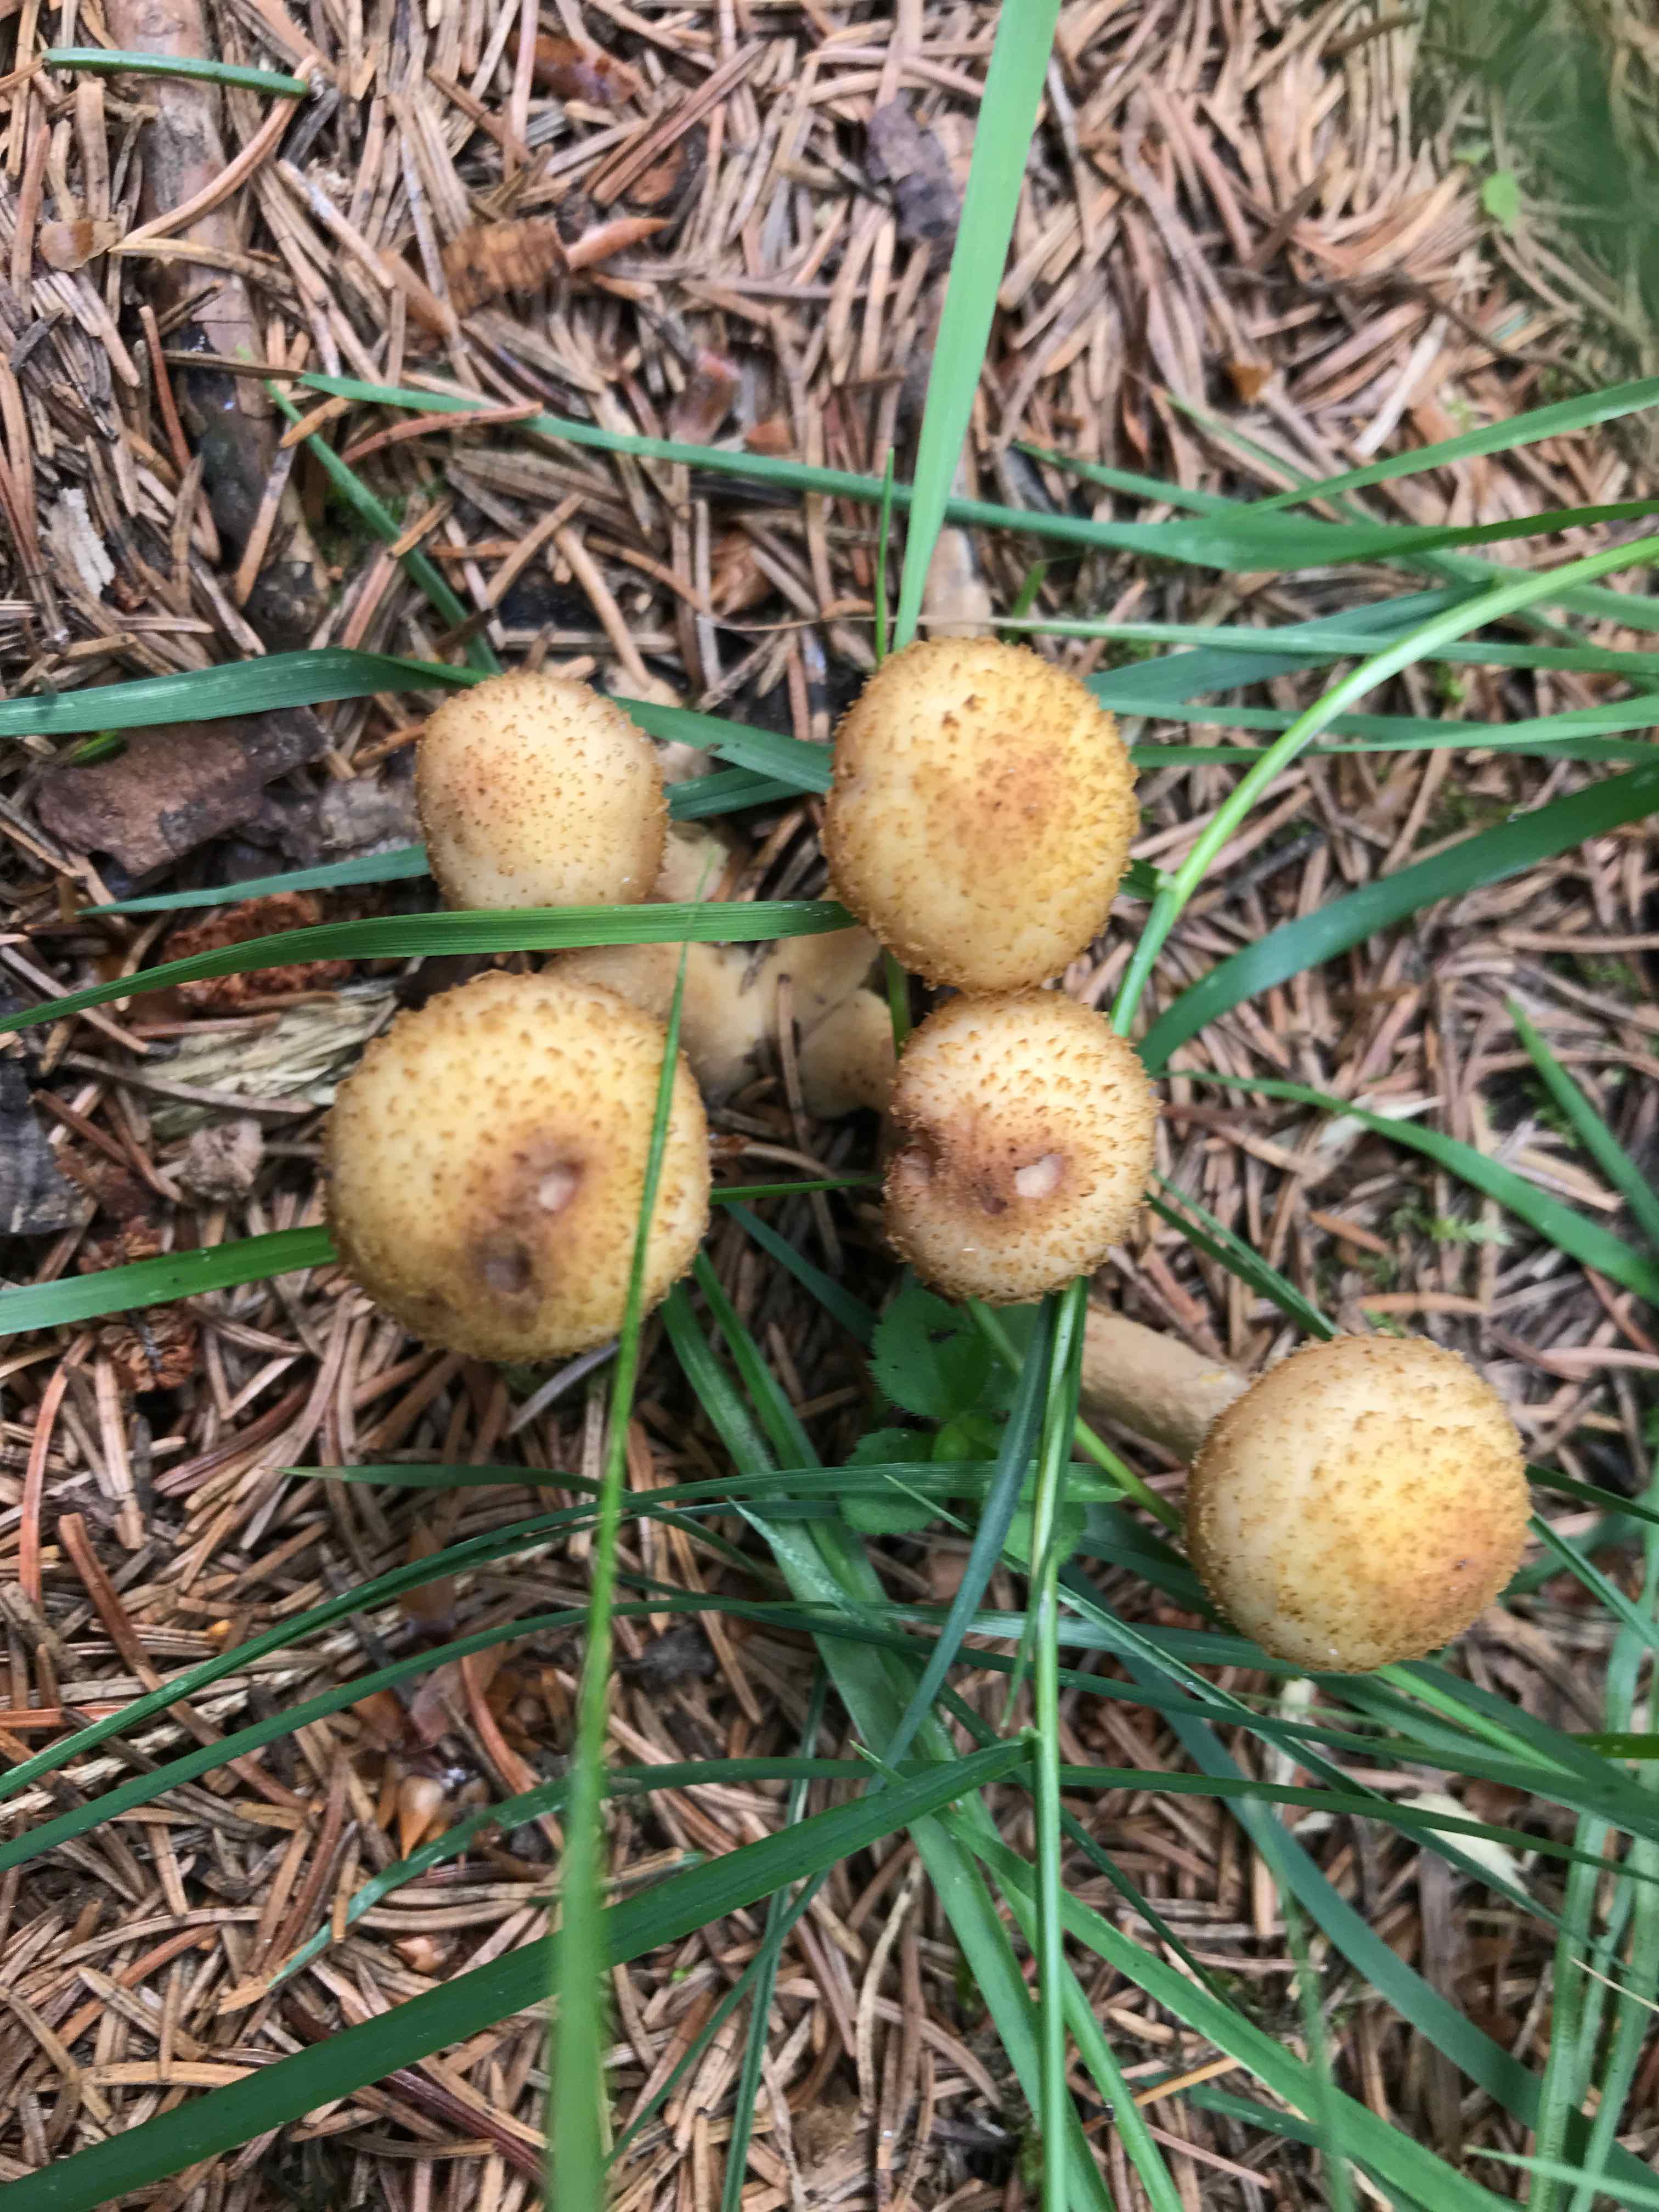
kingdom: Fungi
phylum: Basidiomycota
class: Agaricomycetes
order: Agaricales
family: Physalacriaceae
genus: Armillaria
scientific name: Armillaria ostoyae
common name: mørk honningsvamp
